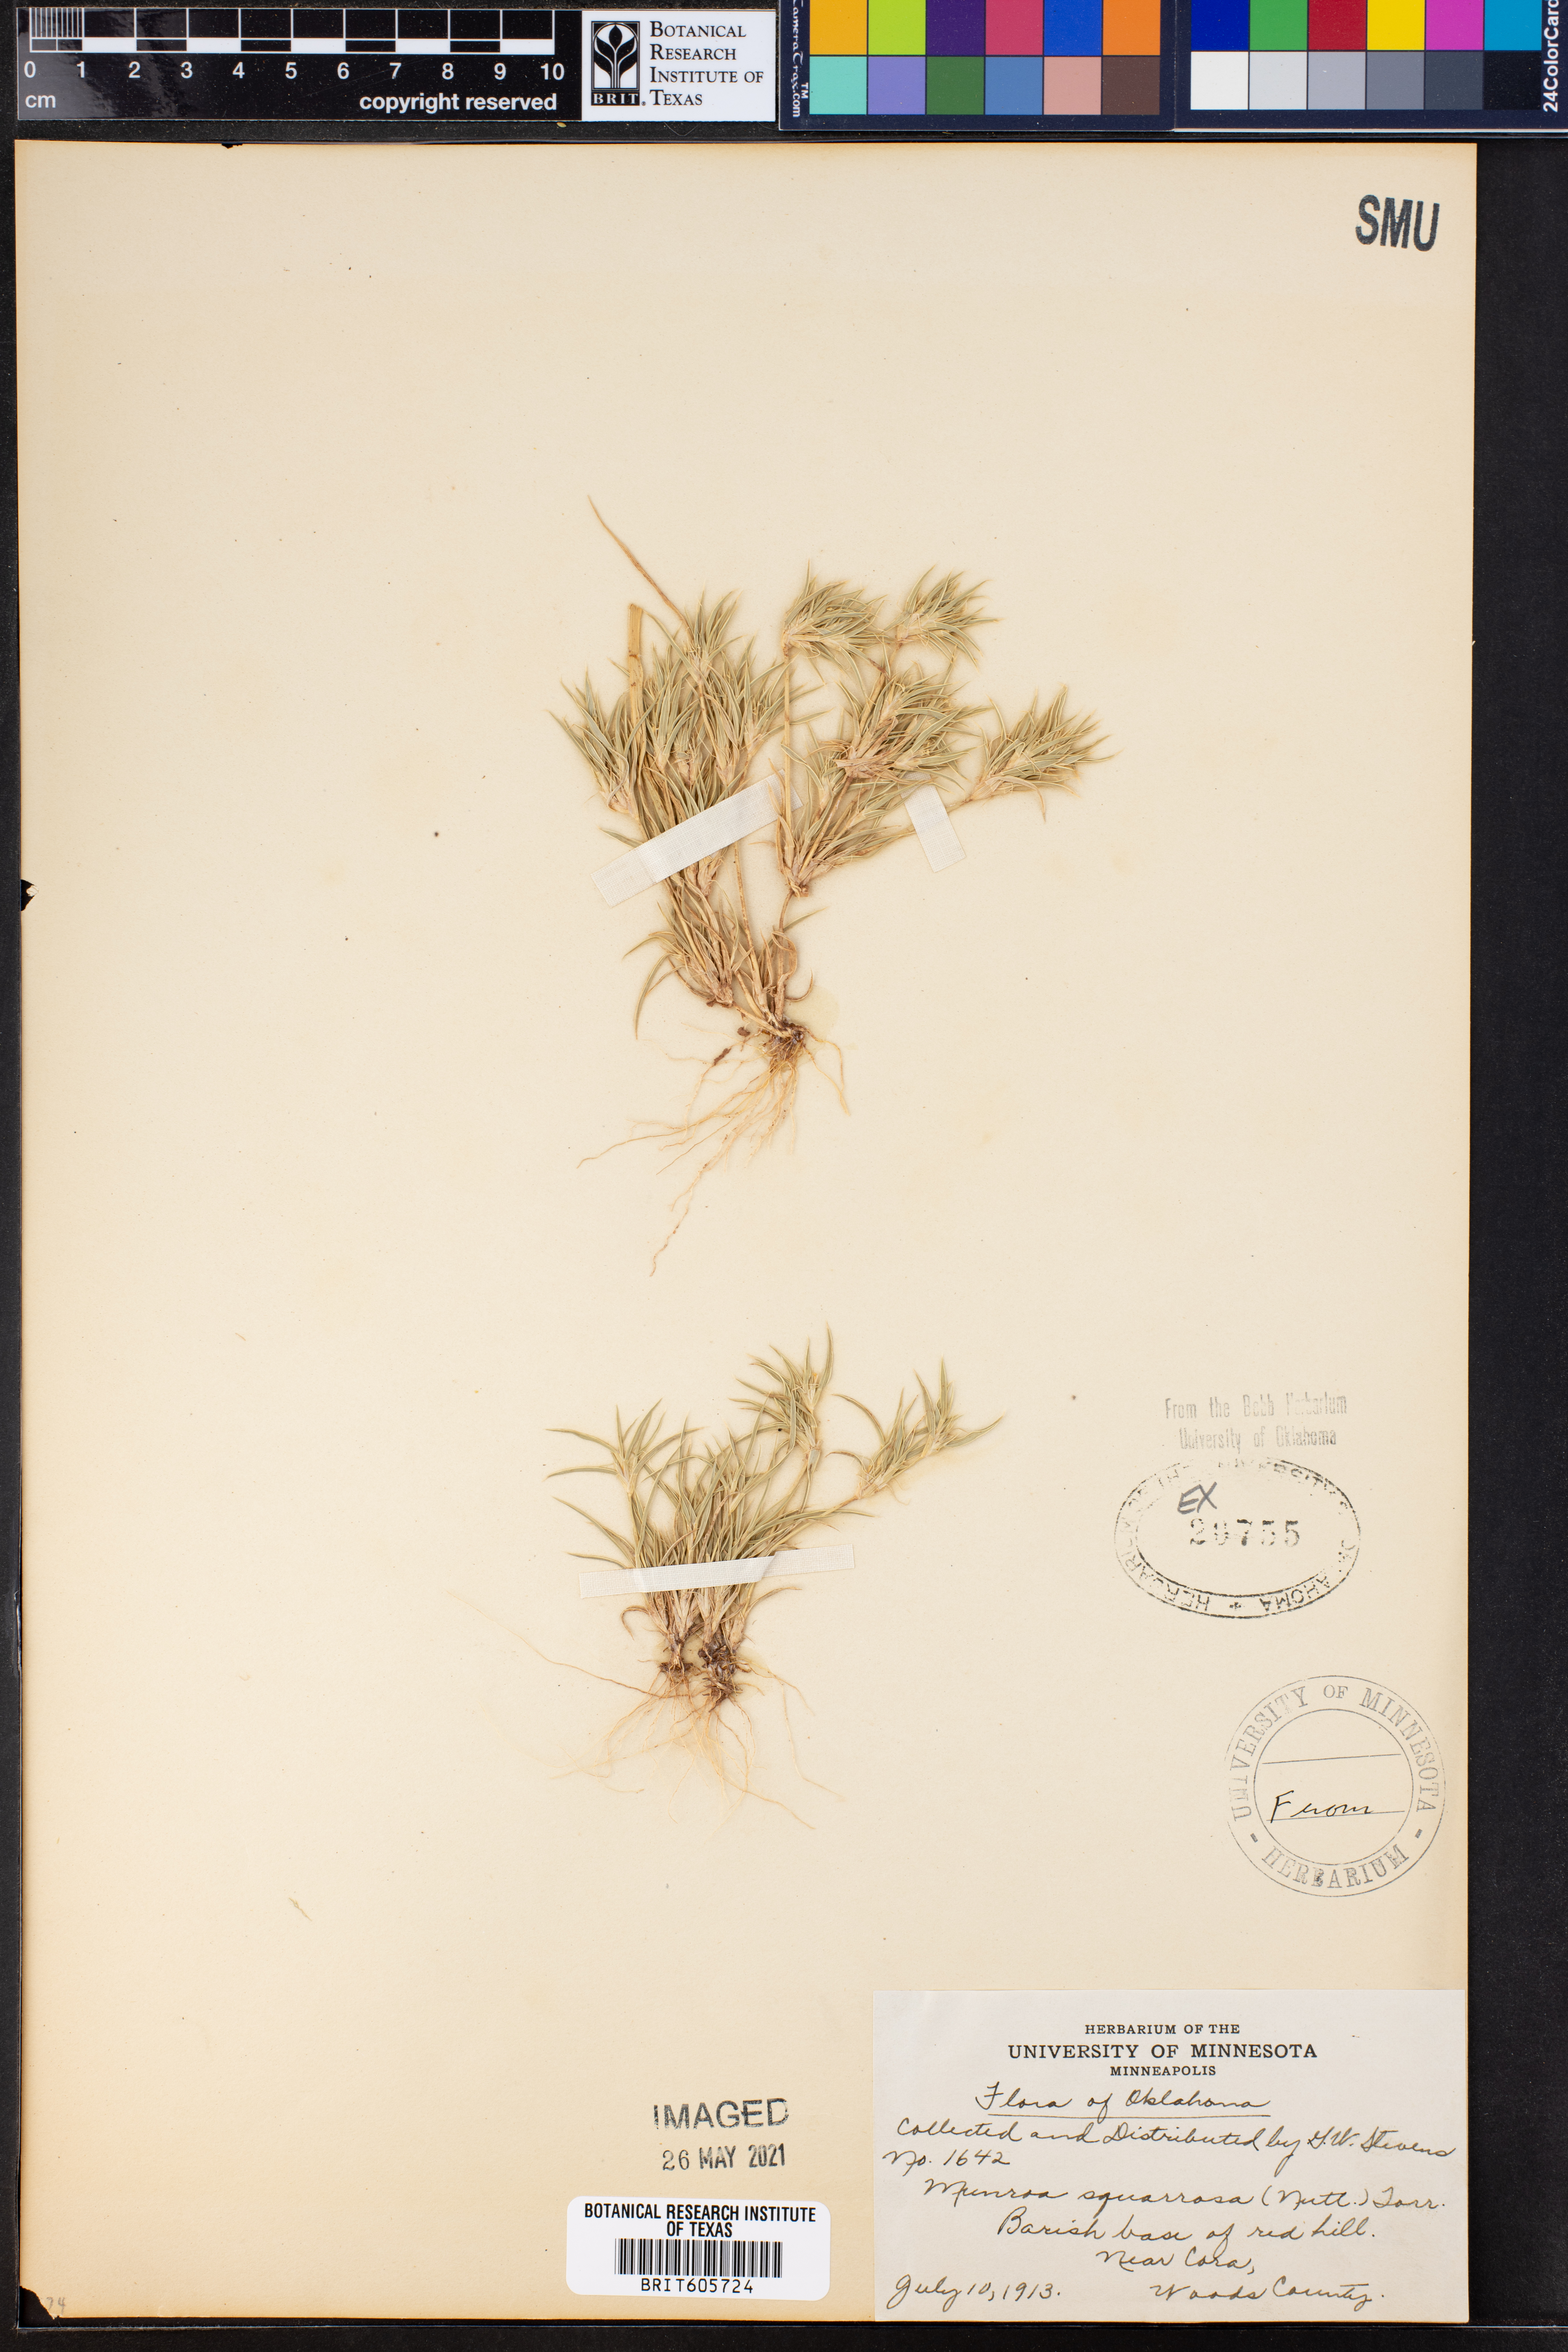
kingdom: Plantae
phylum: Tracheophyta
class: Liliopsida
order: Poales
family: Poaceae
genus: Munroa
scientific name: Munroa squarrosa
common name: False buffalo grass
